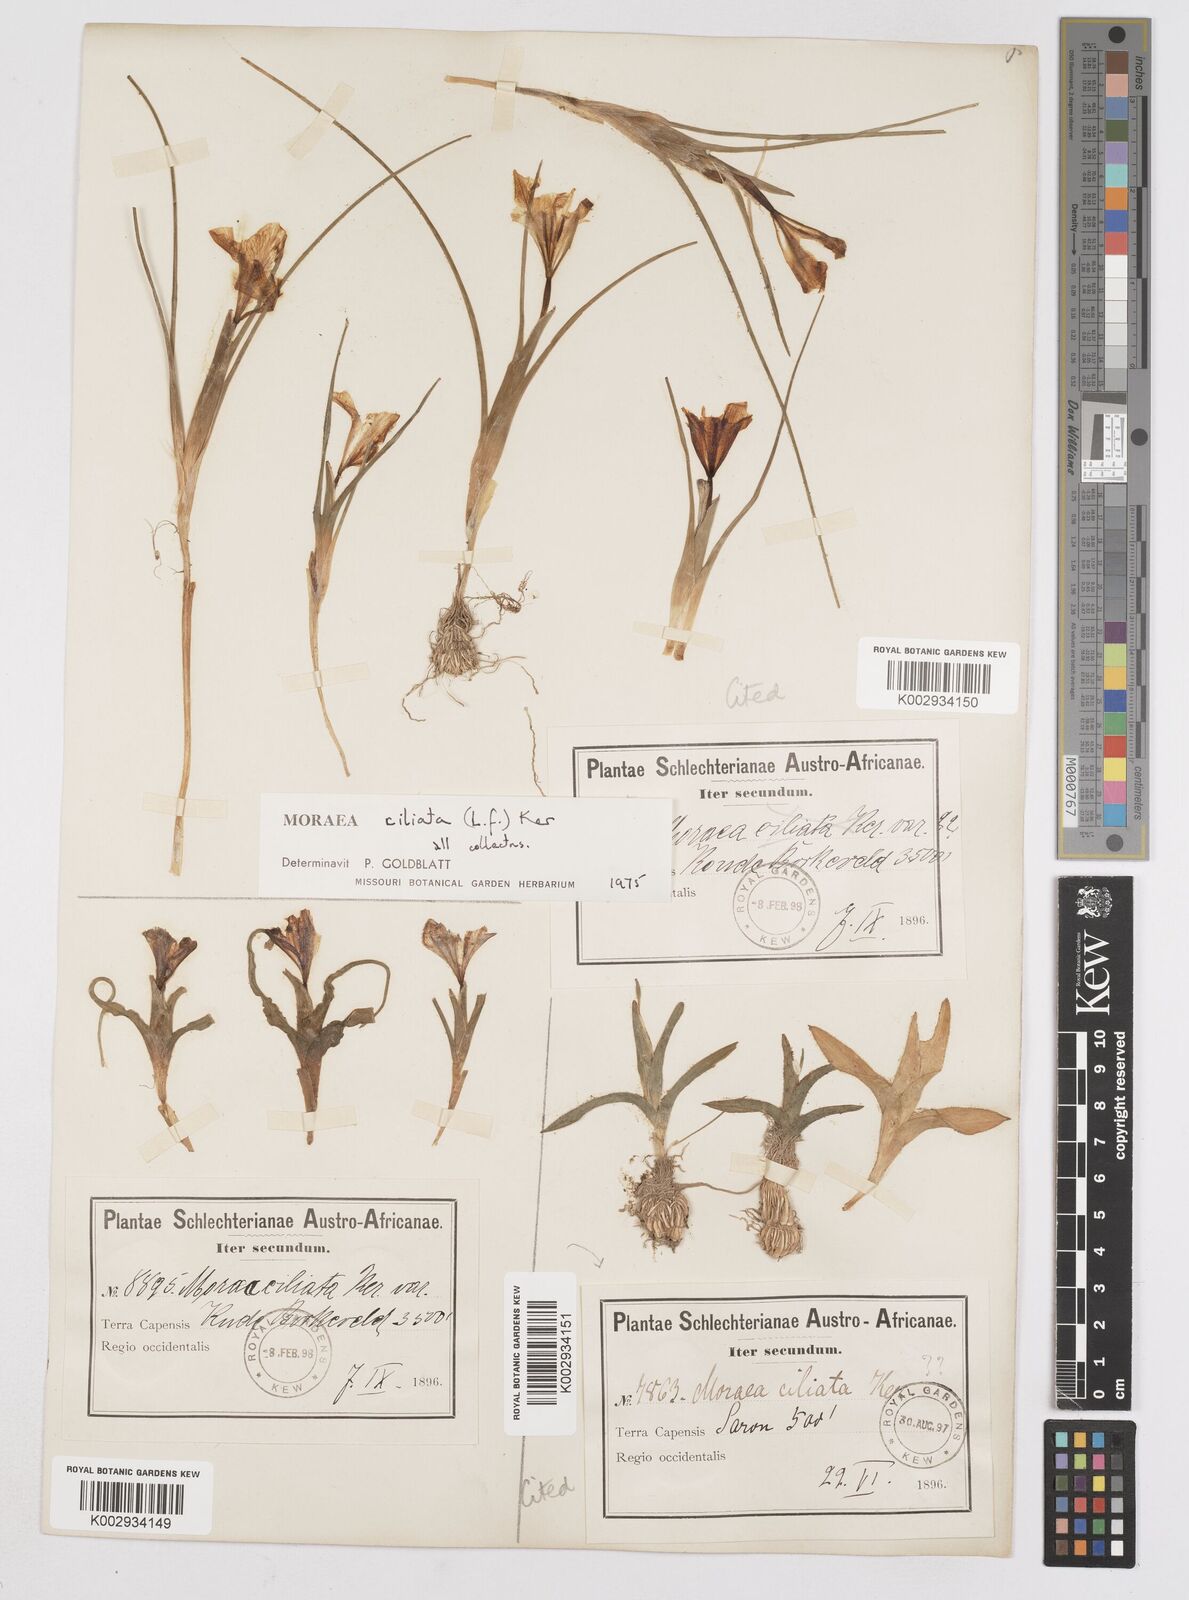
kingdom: Plantae
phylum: Tracheophyta
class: Liliopsida
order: Asparagales
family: Iridaceae
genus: Moraea
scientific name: Moraea ciliata
